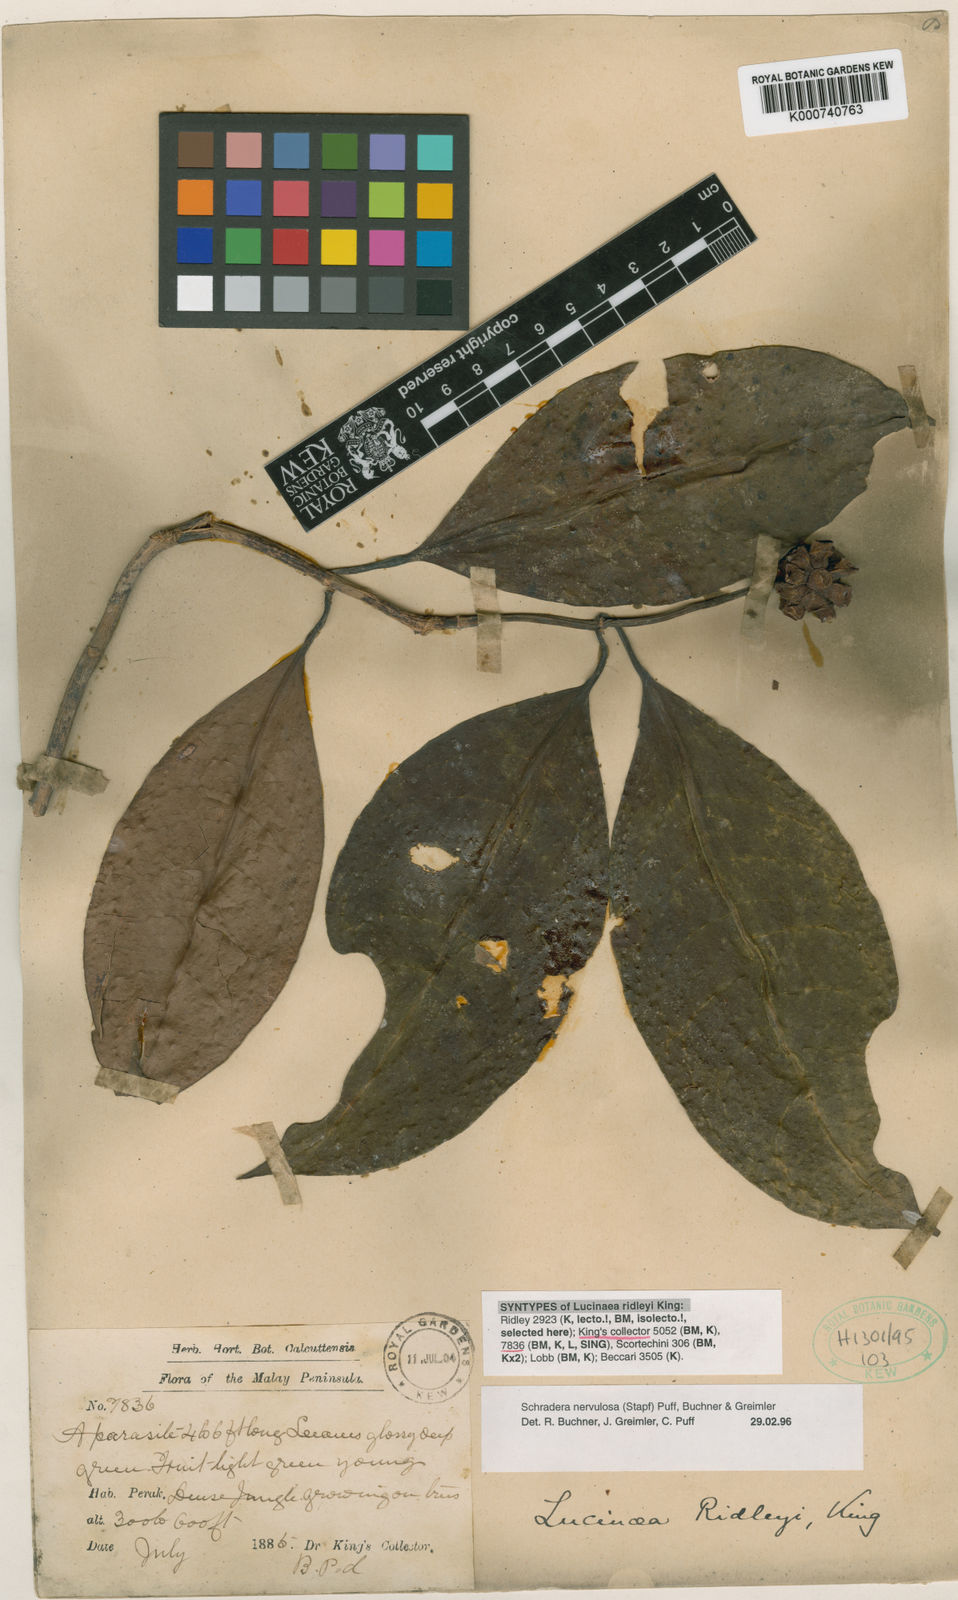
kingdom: Plantae
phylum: Tracheophyta
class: Magnoliopsida
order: Gentianales
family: Rubiaceae
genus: Schradera
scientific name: Schradera nervulosa
